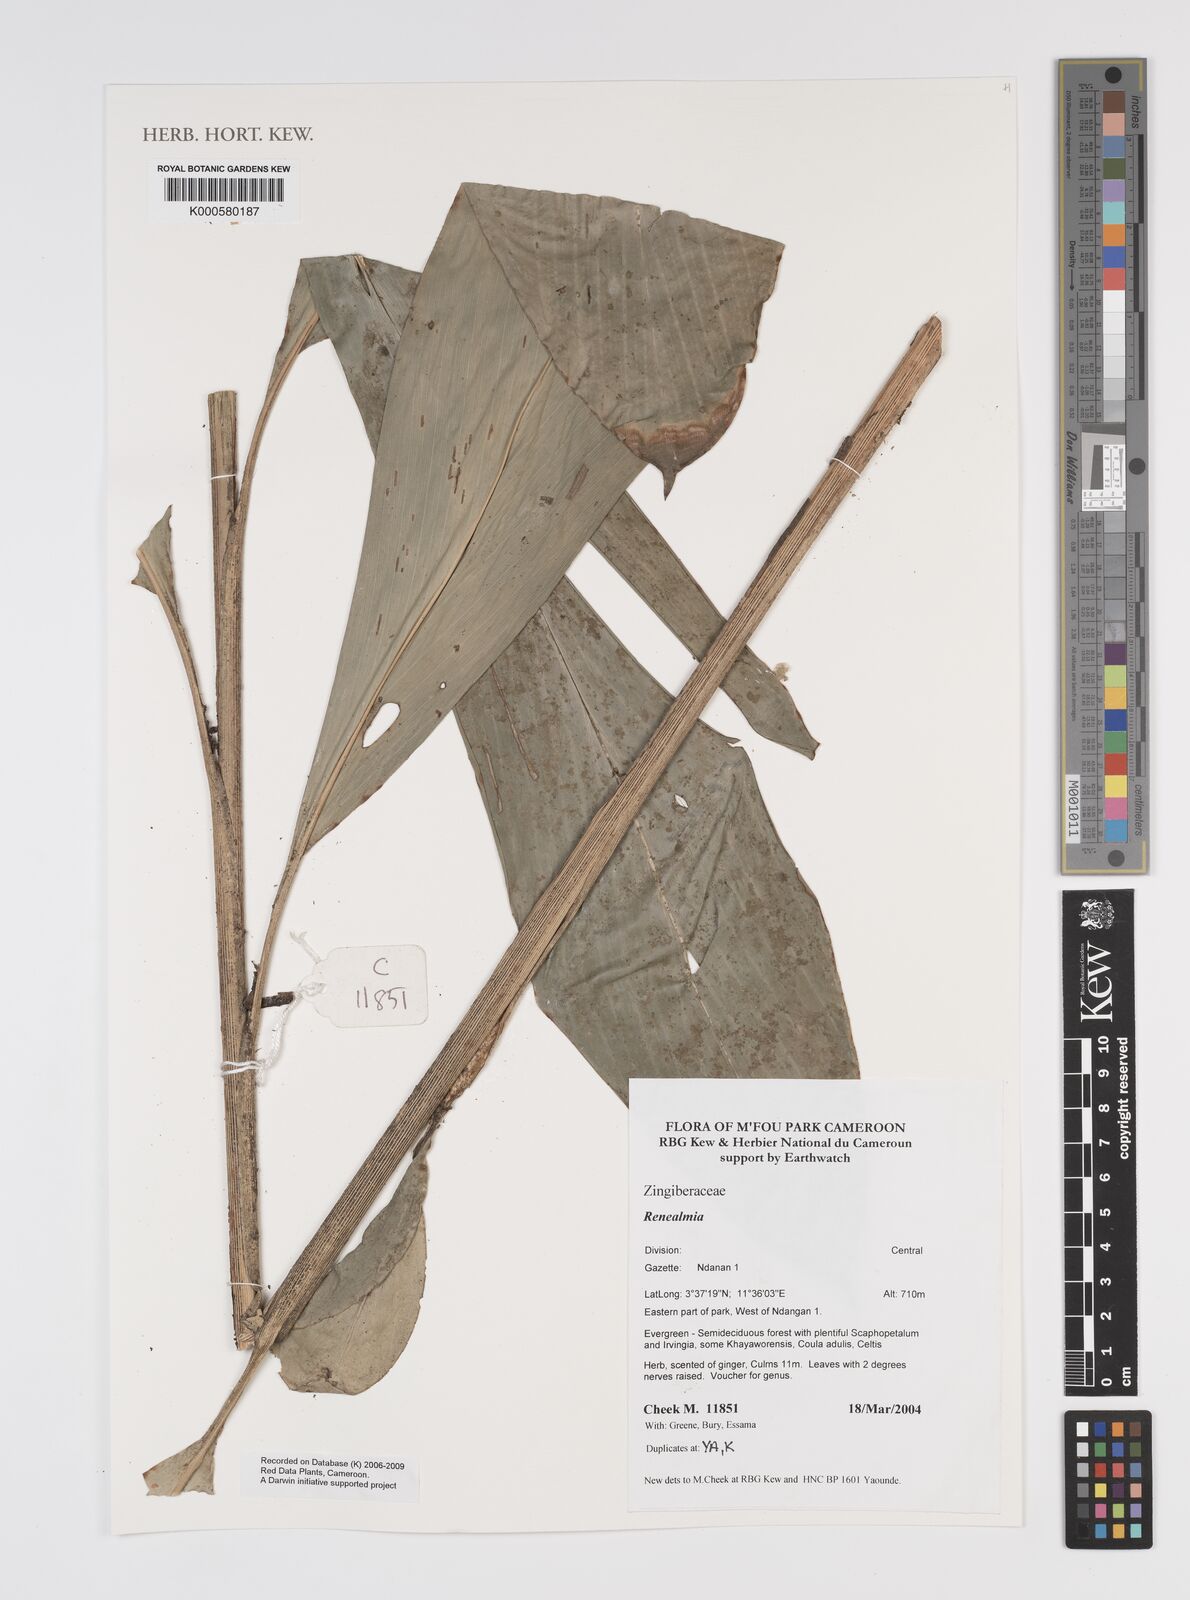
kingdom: Plantae
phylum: Tracheophyta
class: Liliopsida
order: Zingiberales
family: Zingiberaceae
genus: Renealmia
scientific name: Renealmia
